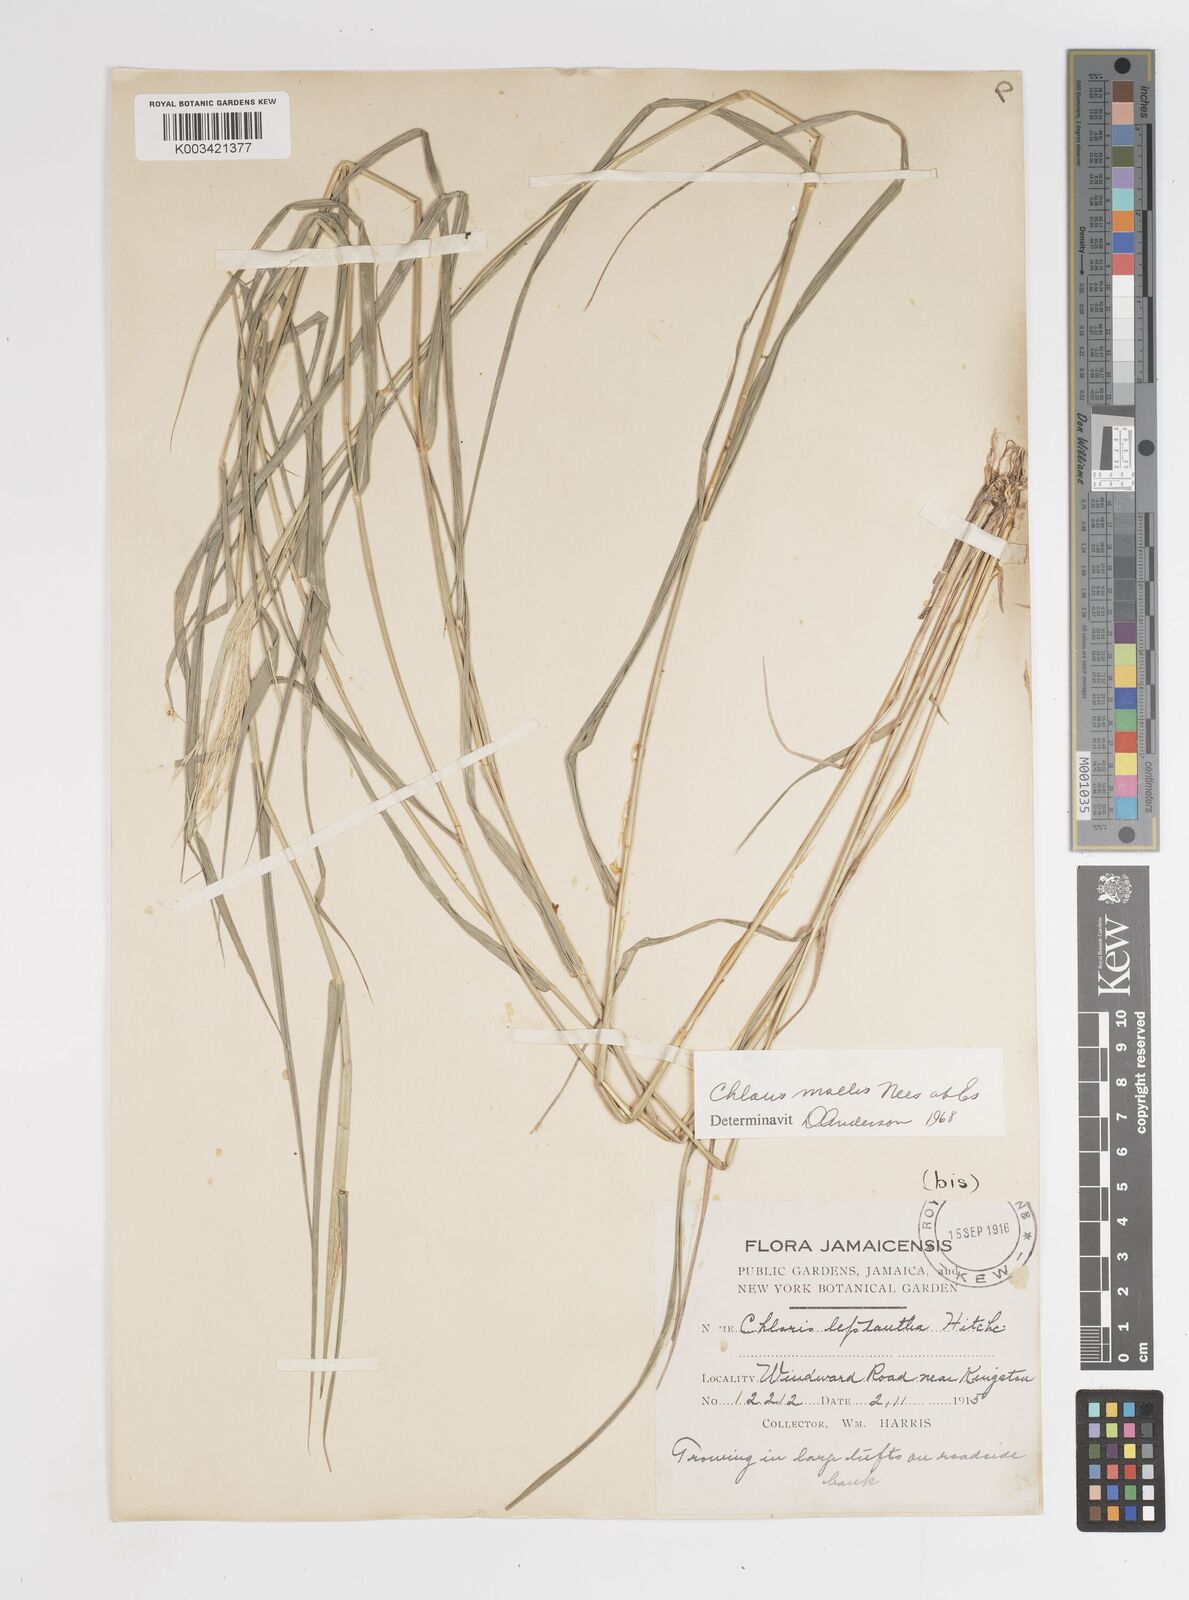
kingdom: Plantae
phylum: Tracheophyta
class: Liliopsida
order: Poales
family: Poaceae
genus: Leptochloa
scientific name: Leptochloa anisopoda
